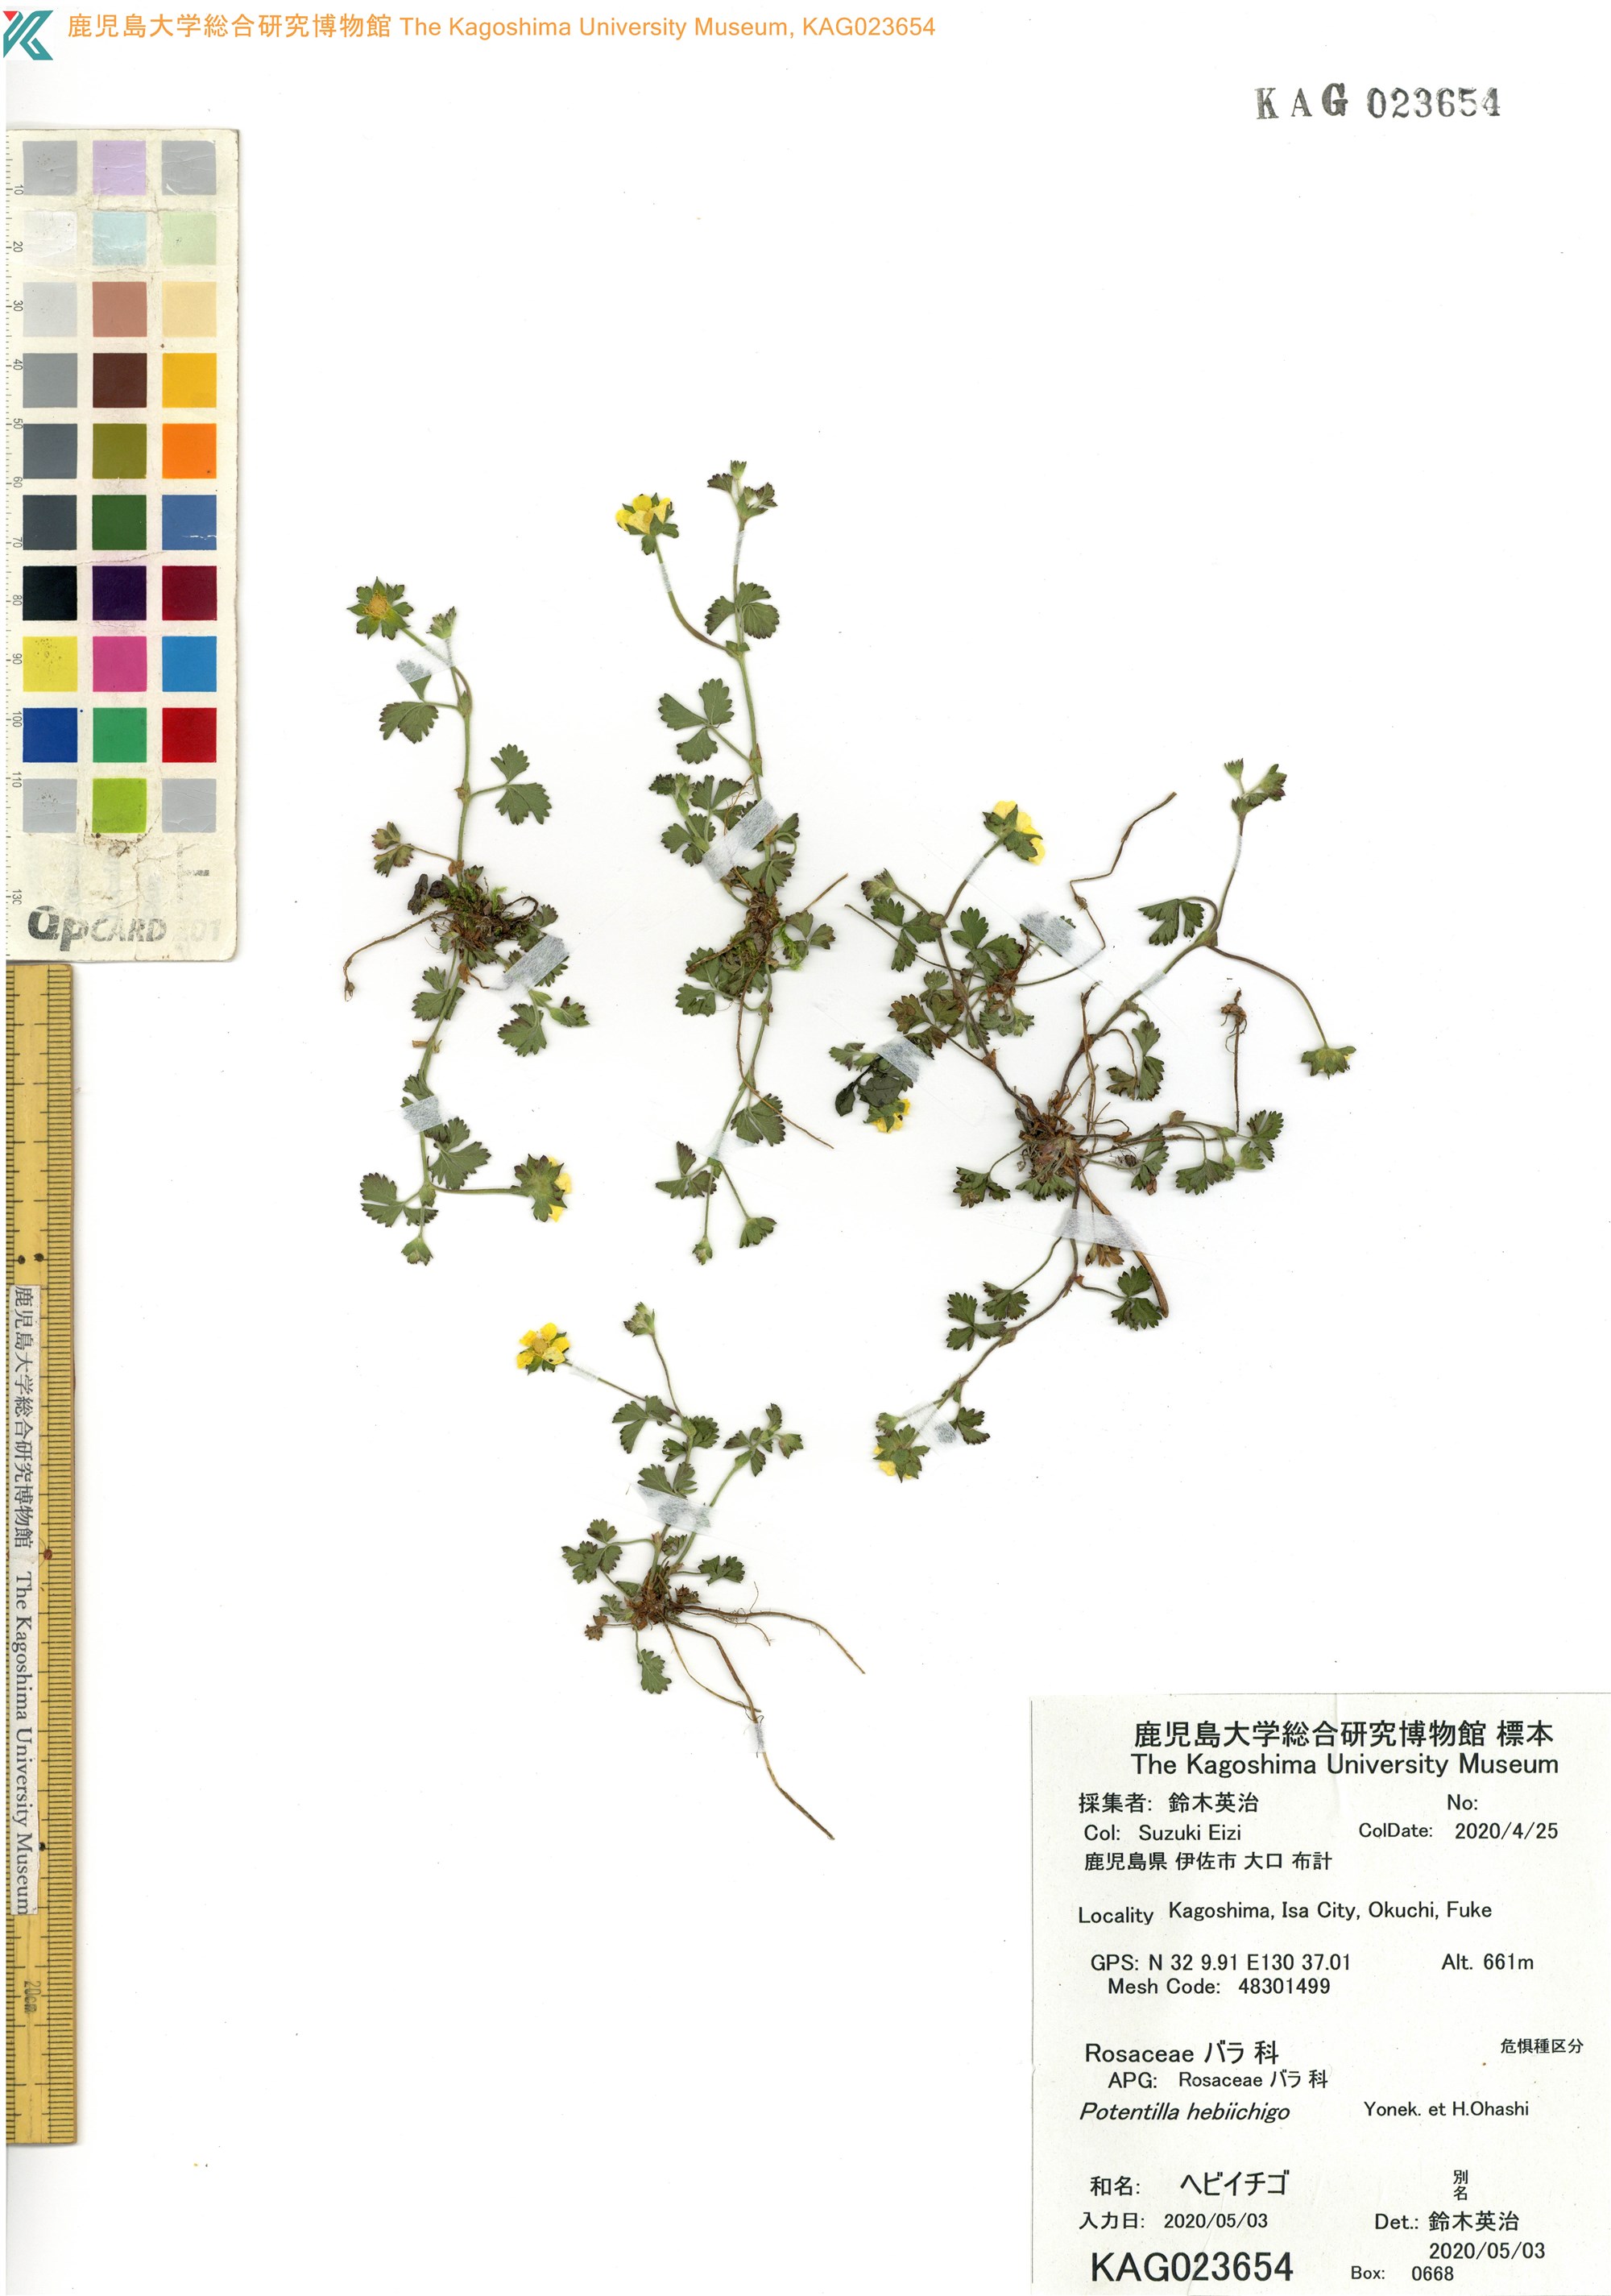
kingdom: Plantae
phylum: Tracheophyta
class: Magnoliopsida
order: Rosales
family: Rosaceae
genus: Potentilla
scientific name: Potentilla wallichiana
